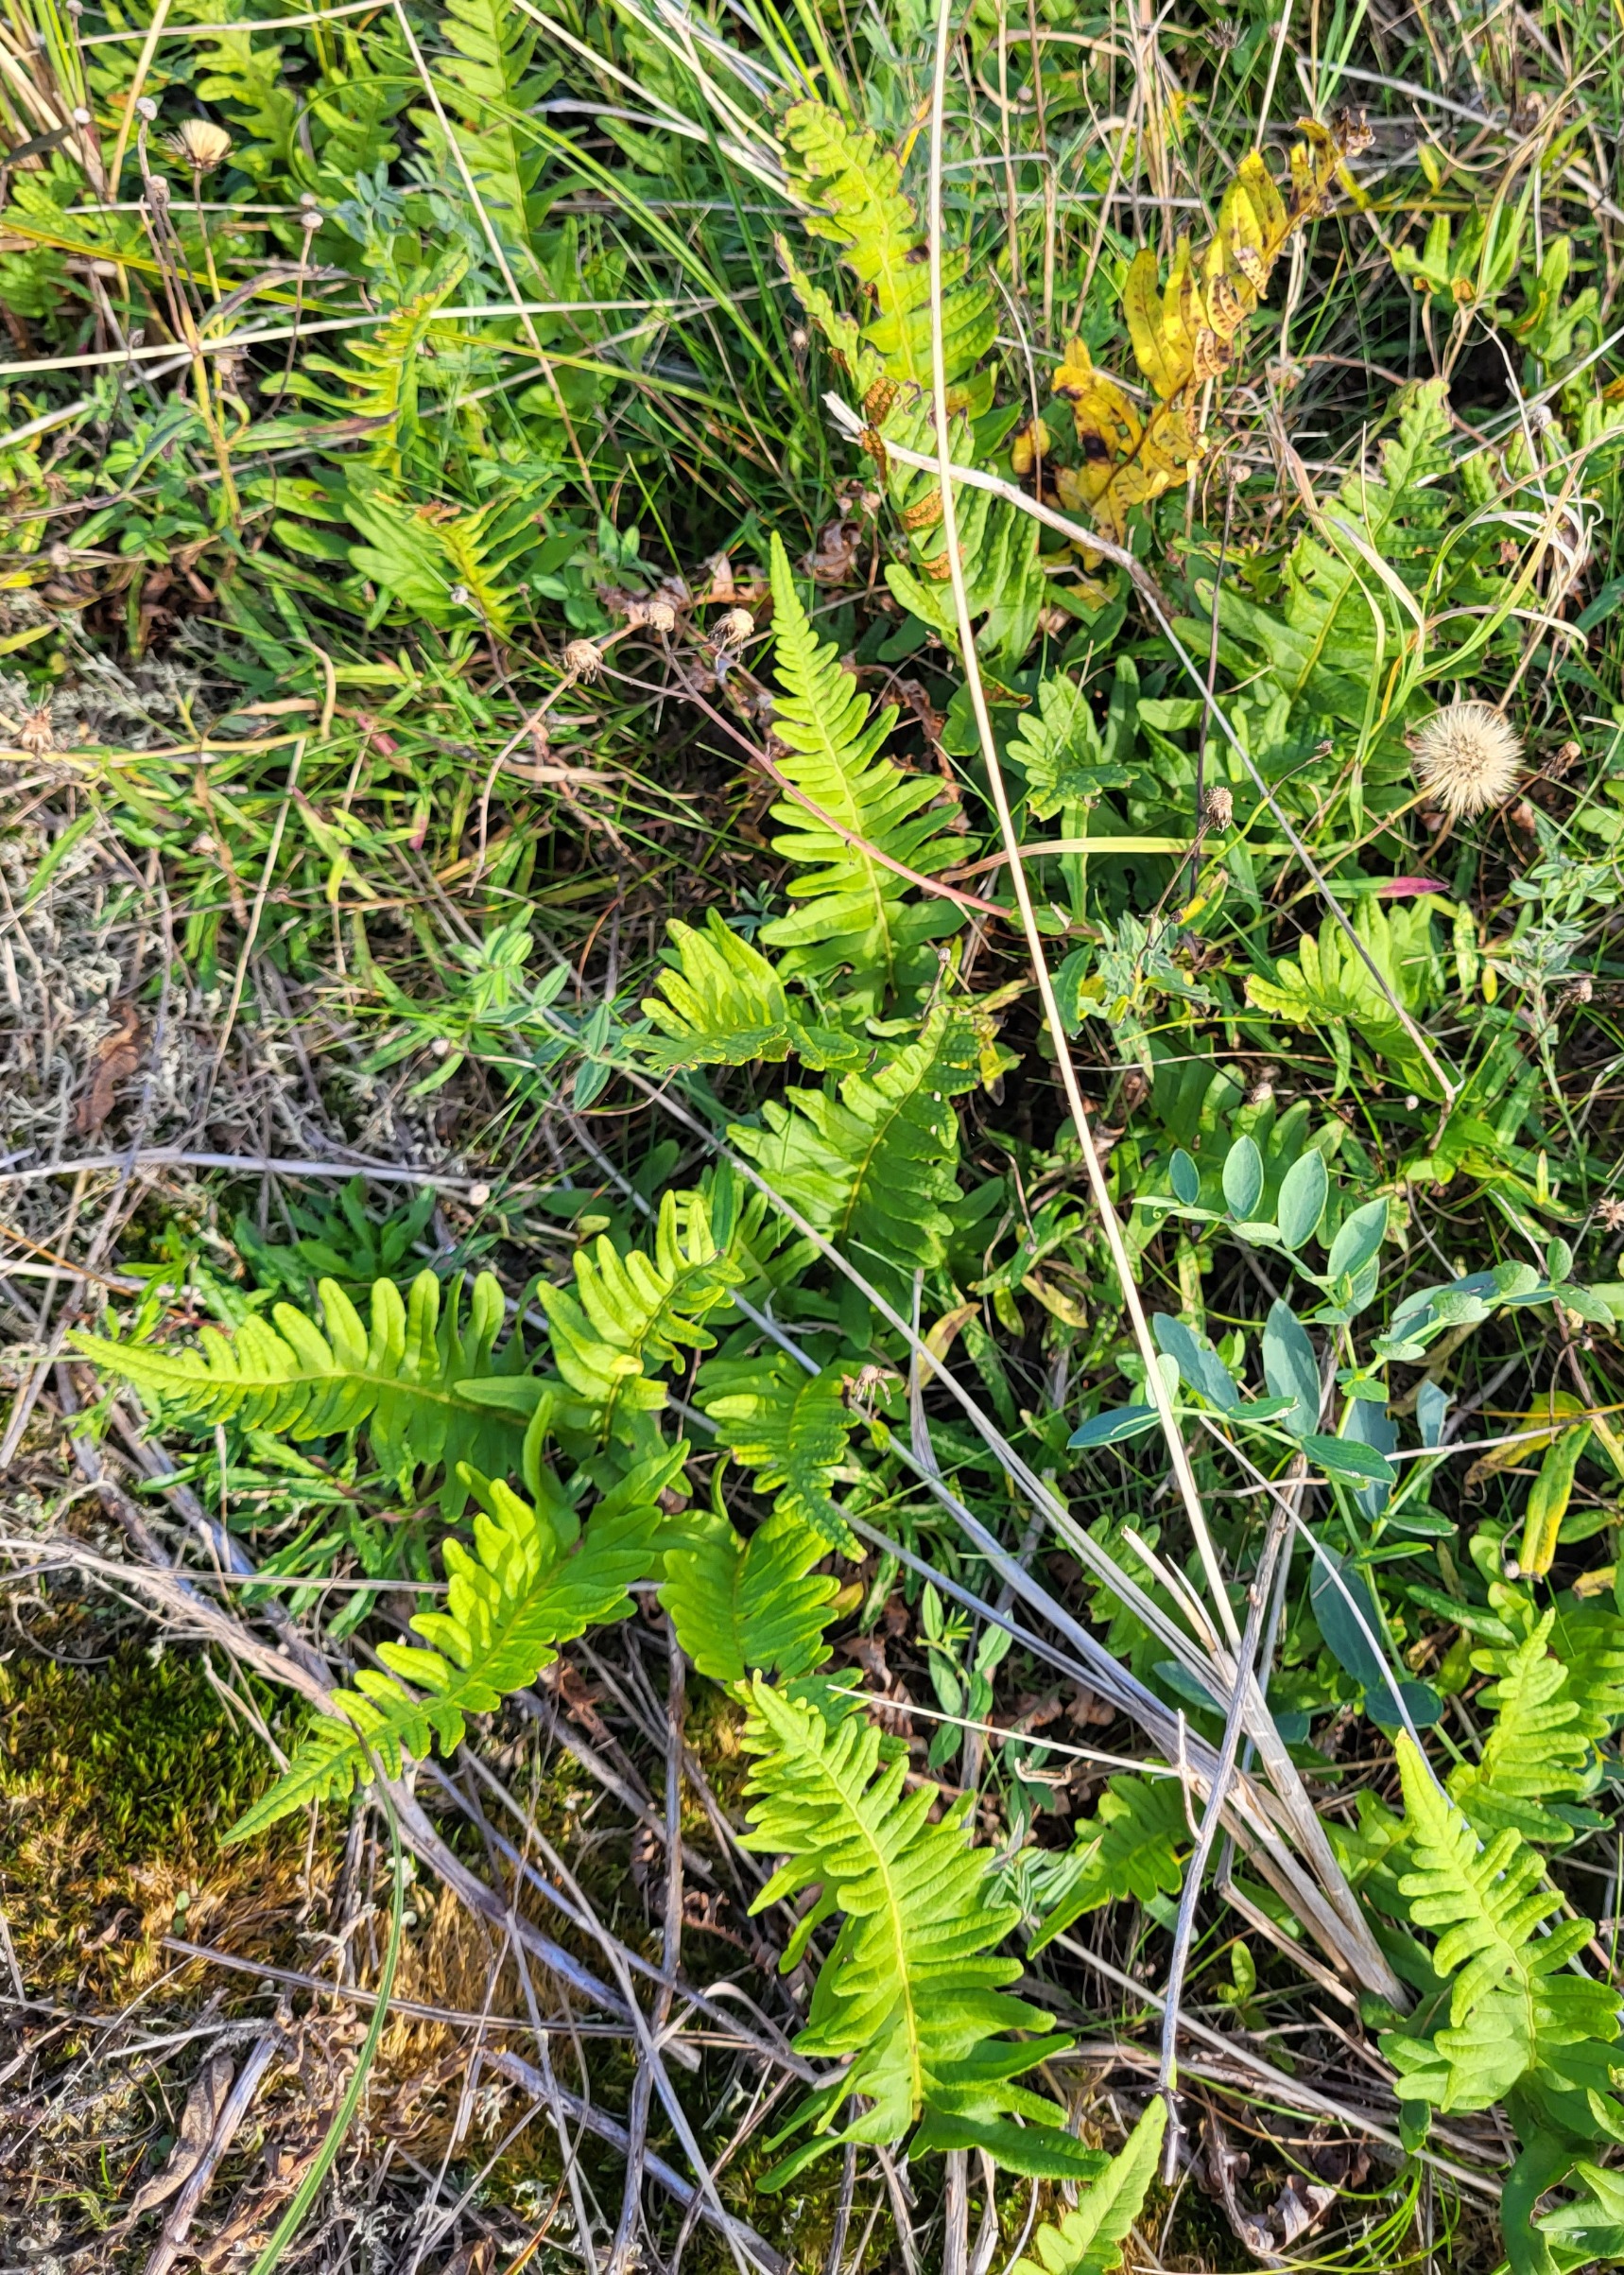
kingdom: Plantae
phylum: Tracheophyta
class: Polypodiopsida
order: Polypodiales
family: Polypodiaceae
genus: Polypodium
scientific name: Polypodium vulgare
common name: Almindelig engelsød
